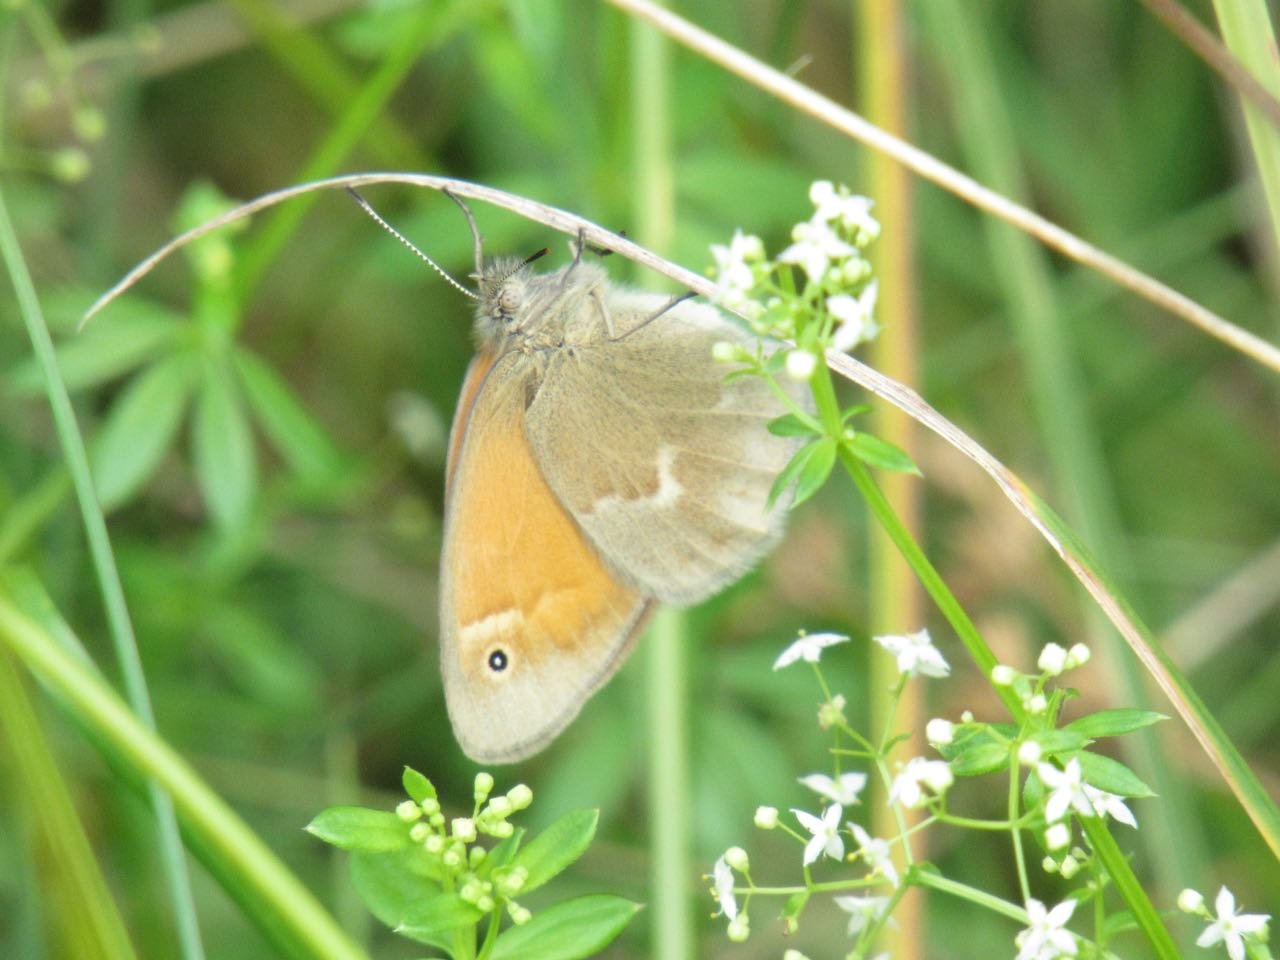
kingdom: Animalia
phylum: Arthropoda
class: Insecta
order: Lepidoptera
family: Nymphalidae
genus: Coenonympha
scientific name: Coenonympha tullia
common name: Large Heath
